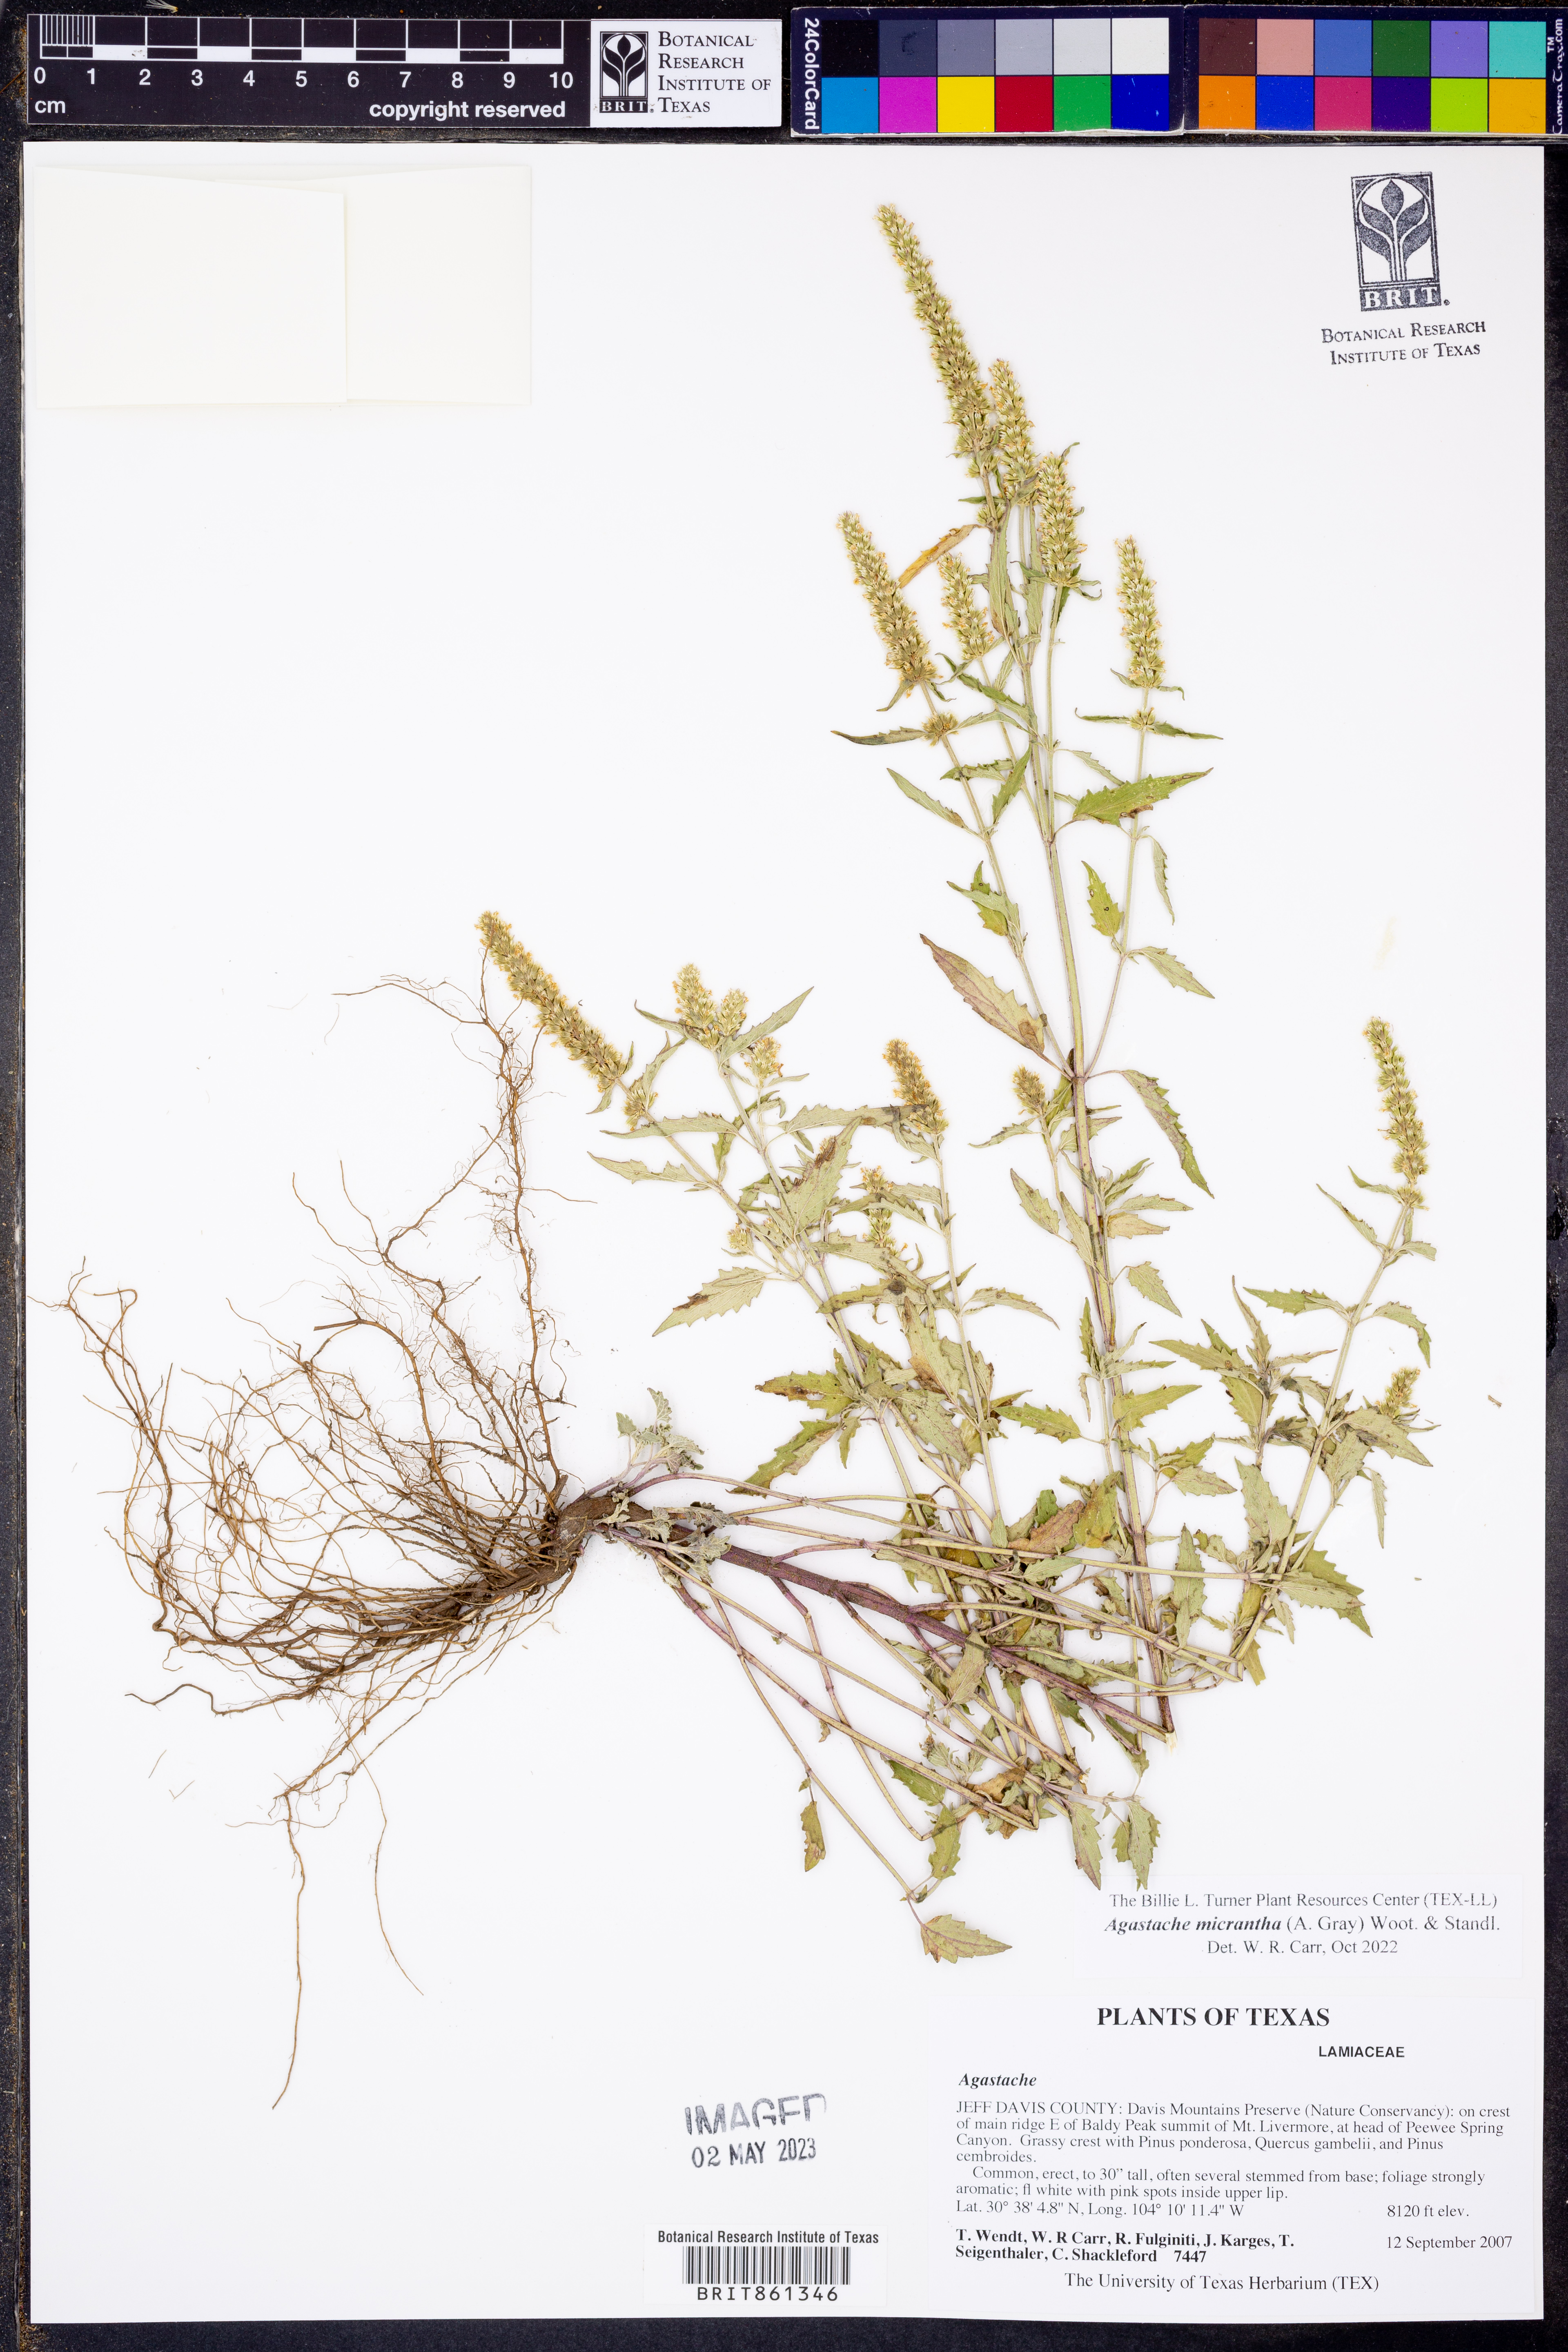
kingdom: Plantae
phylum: Tracheophyta
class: Magnoliopsida
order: Lamiales
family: Lamiaceae
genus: Agastache
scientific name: Agastache micrantha
